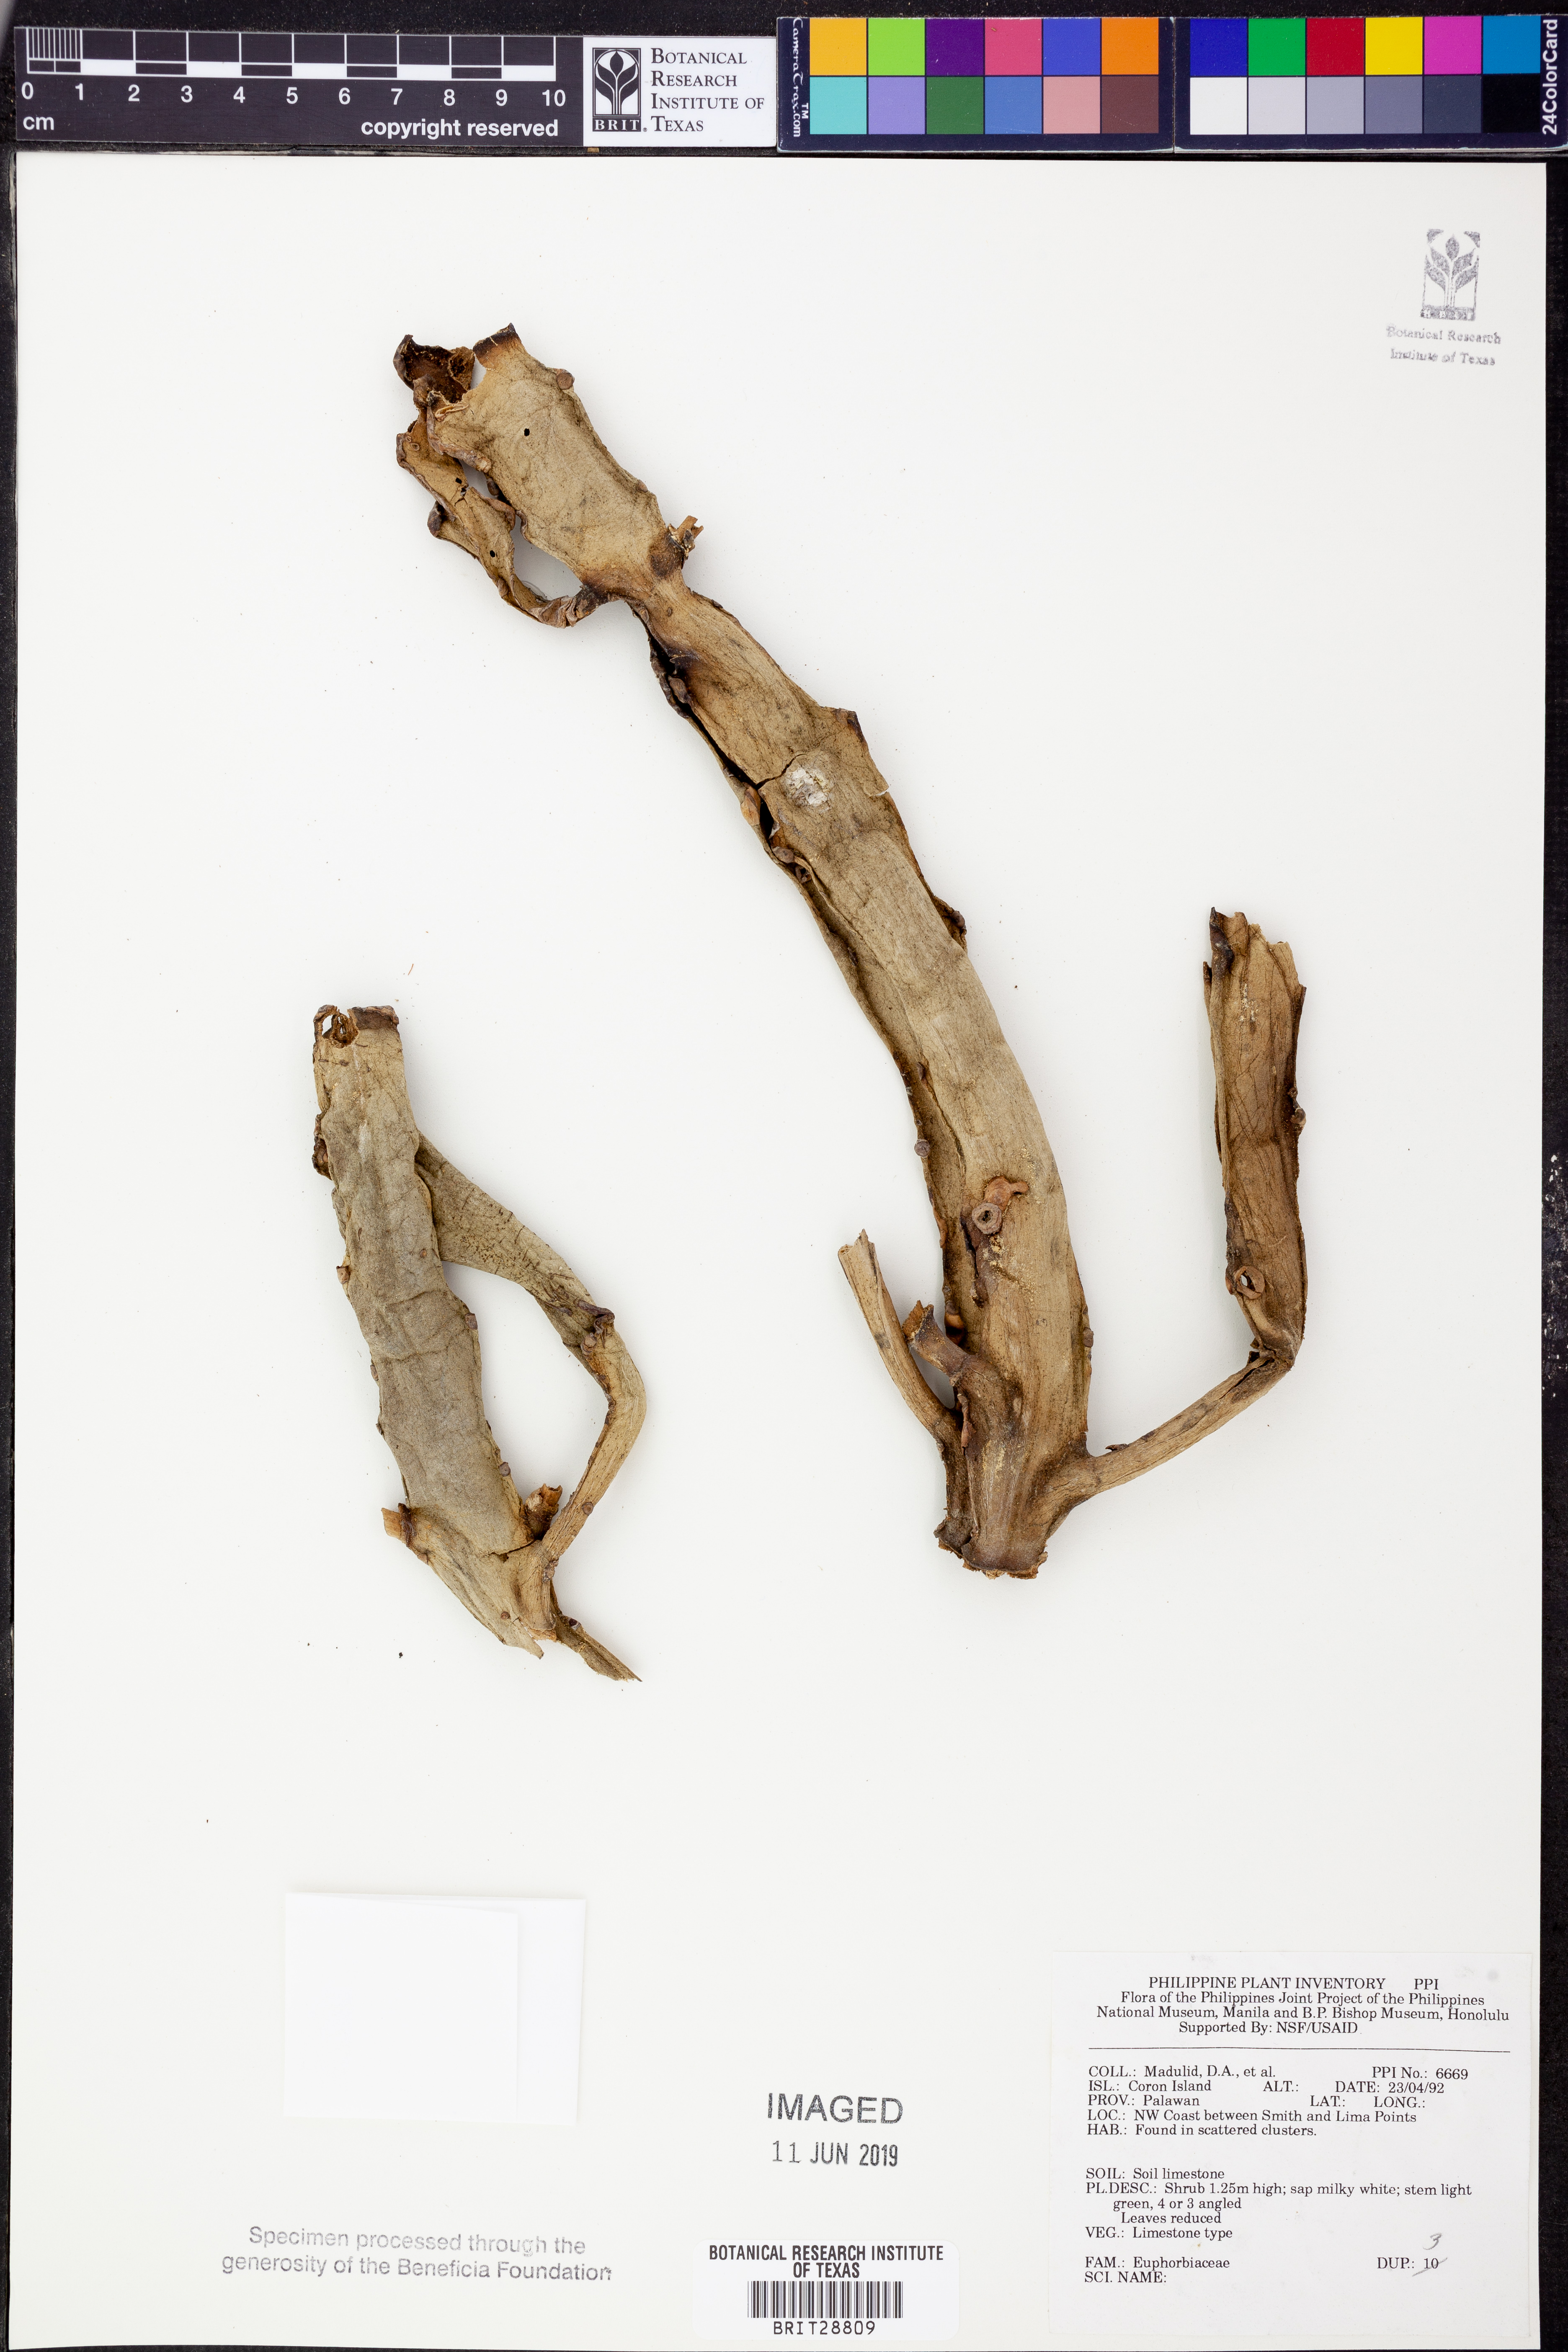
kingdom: Plantae
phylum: Tracheophyta
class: Magnoliopsida
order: Malpighiales
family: Euphorbiaceae
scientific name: Euphorbiaceae
